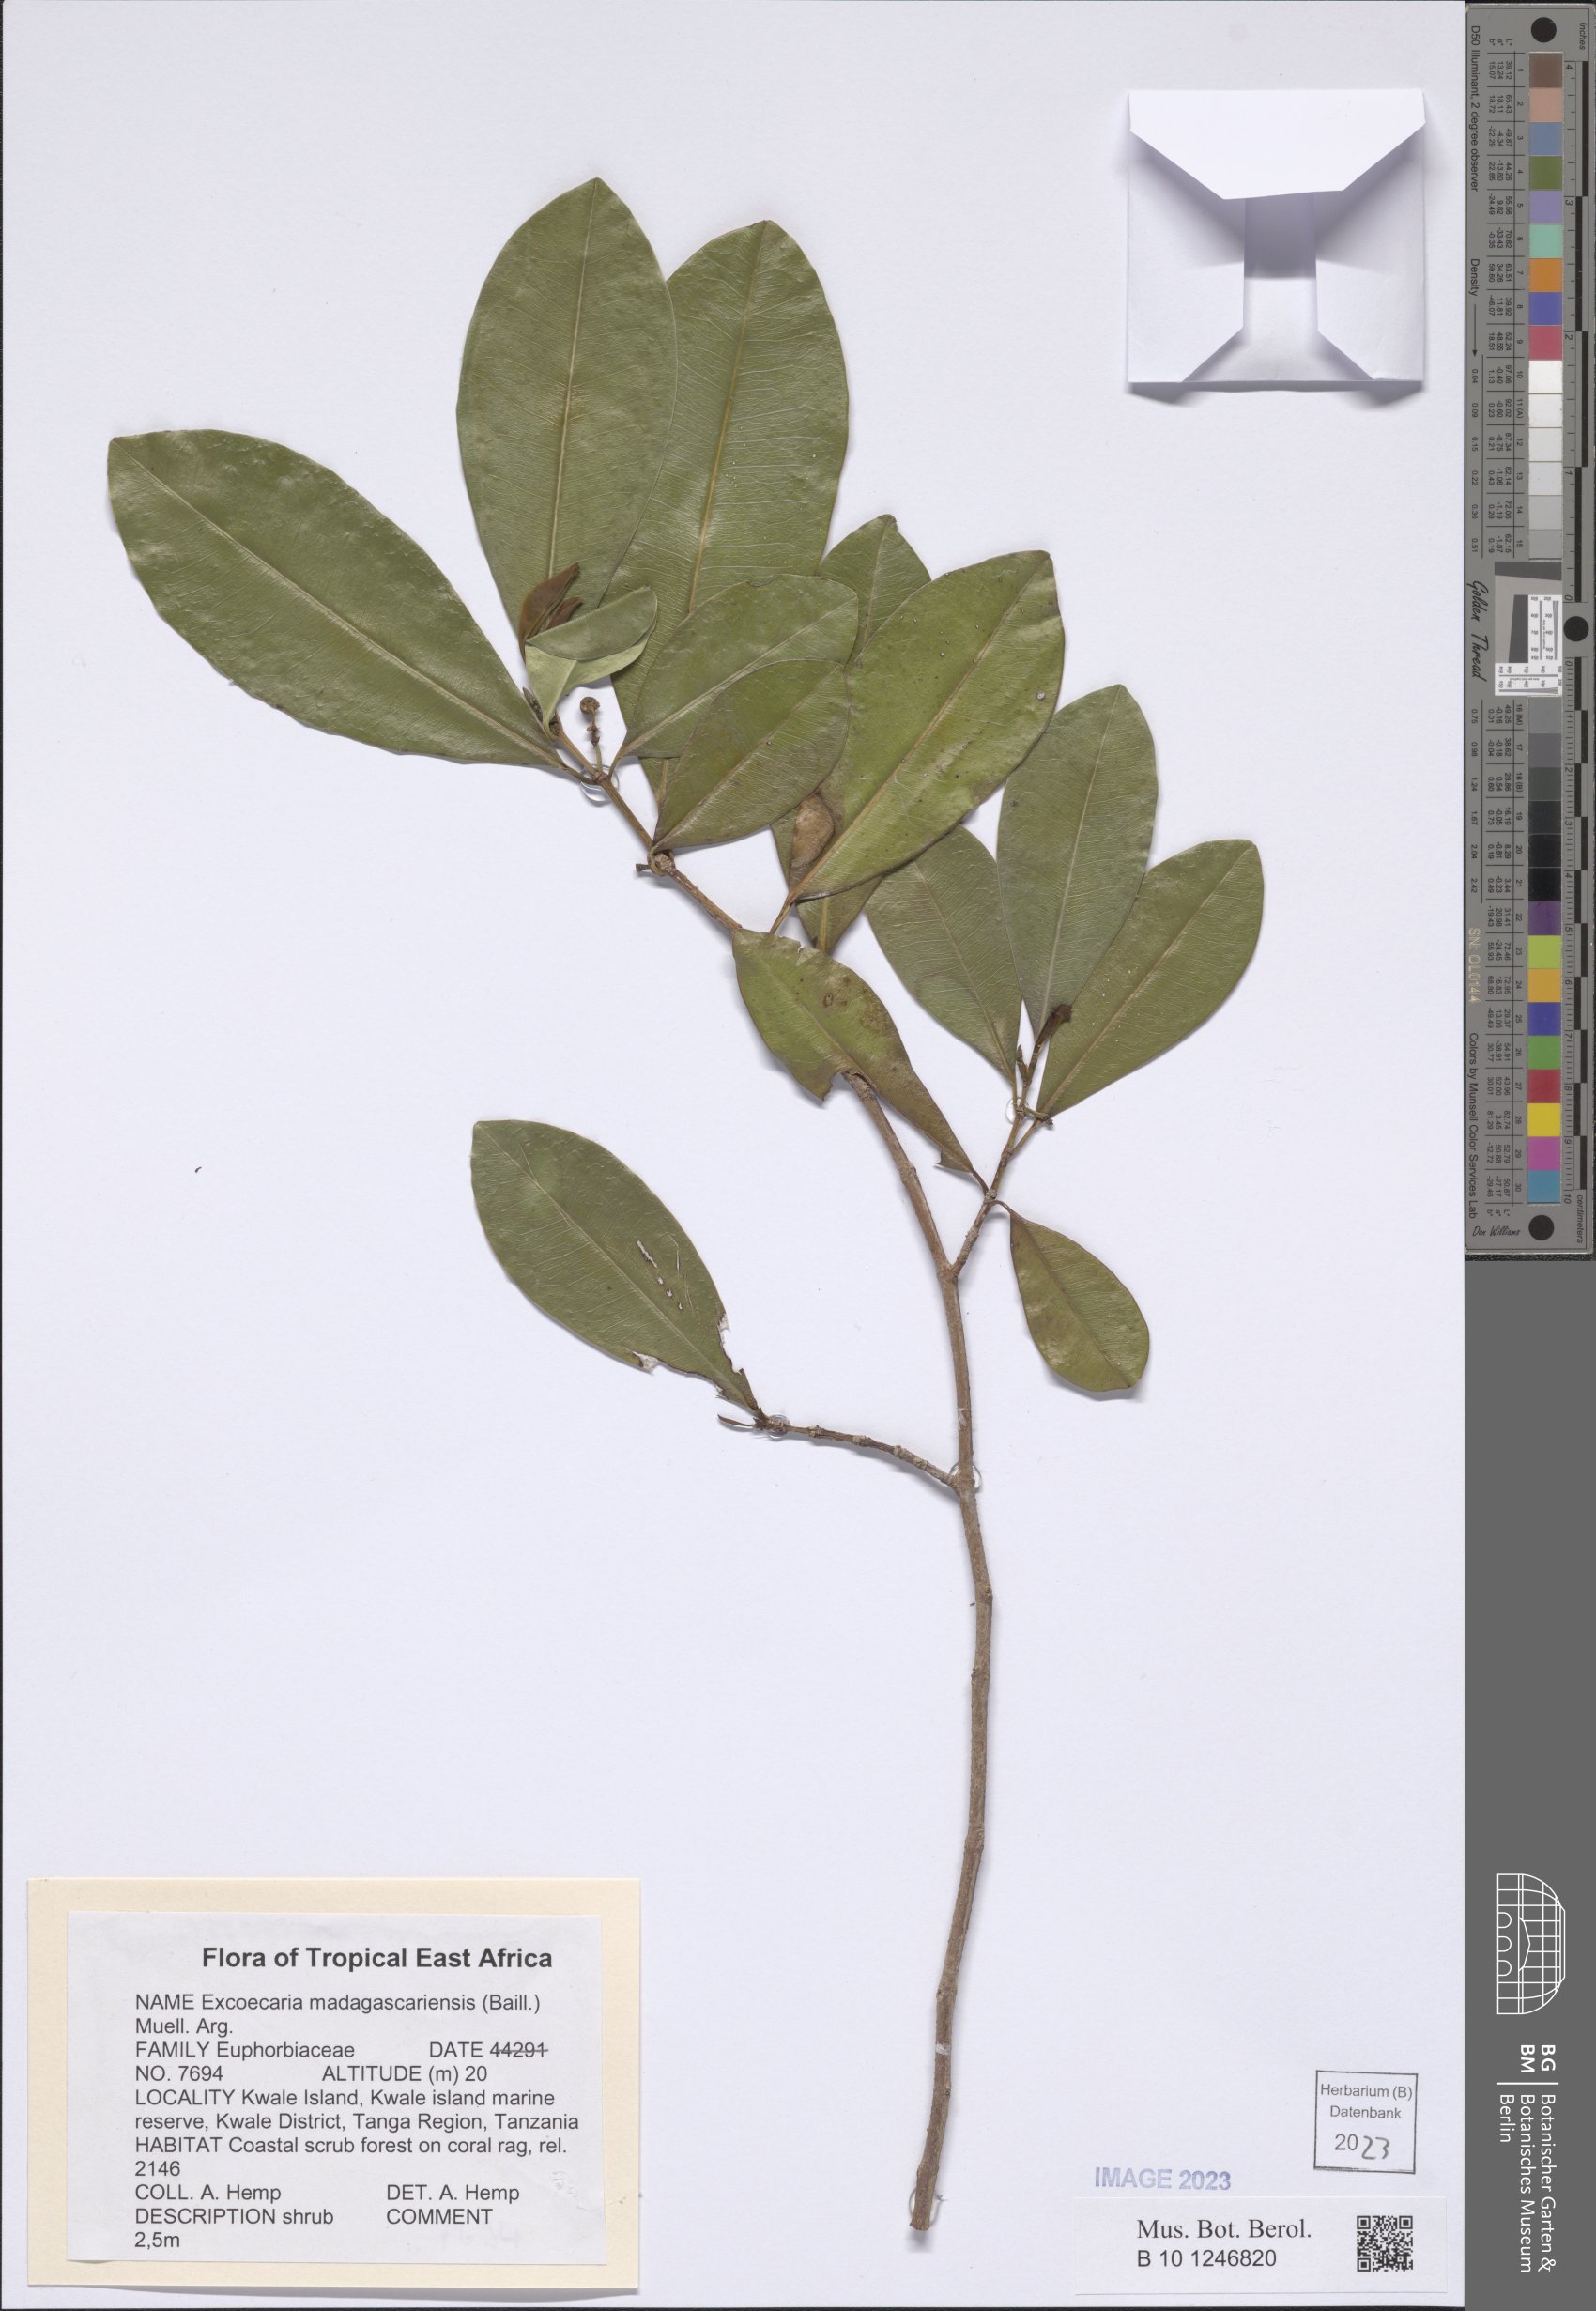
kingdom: Plantae
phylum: Tracheophyta
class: Magnoliopsida
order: Malpighiales
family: Euphorbiaceae
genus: Excoecaria
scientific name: Excoecaria madagascariensis
